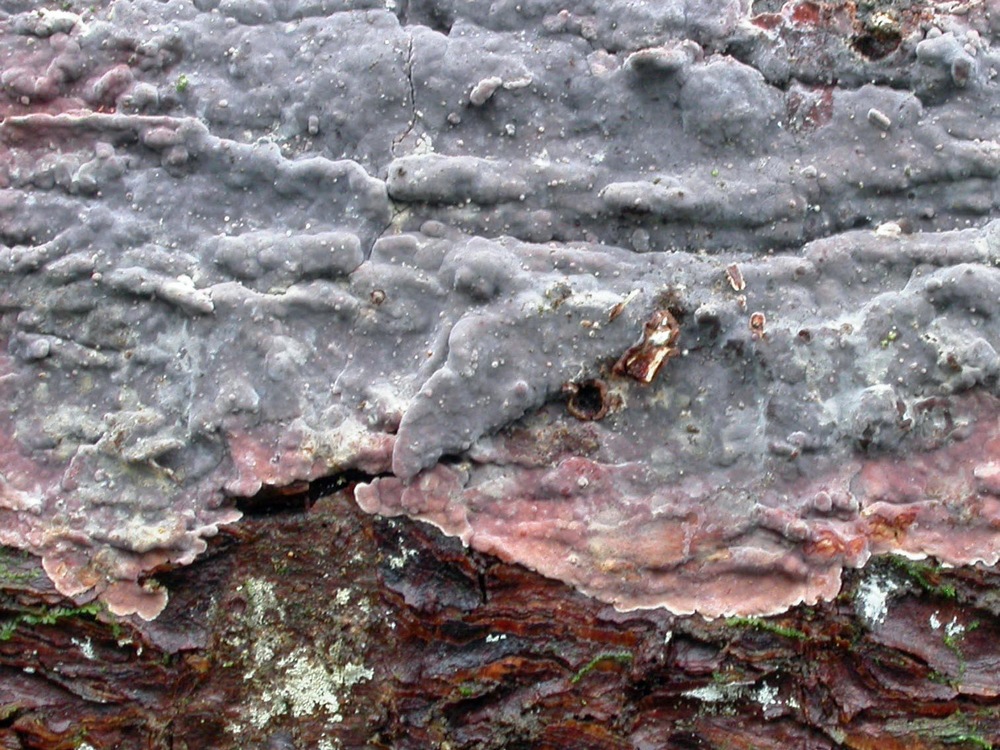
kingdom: Fungi
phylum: Basidiomycota
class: Agaricomycetes
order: Russulales
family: Echinodontiaceae
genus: Amylostereum
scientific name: Amylostereum chailletii
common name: gran-lædersvamp
